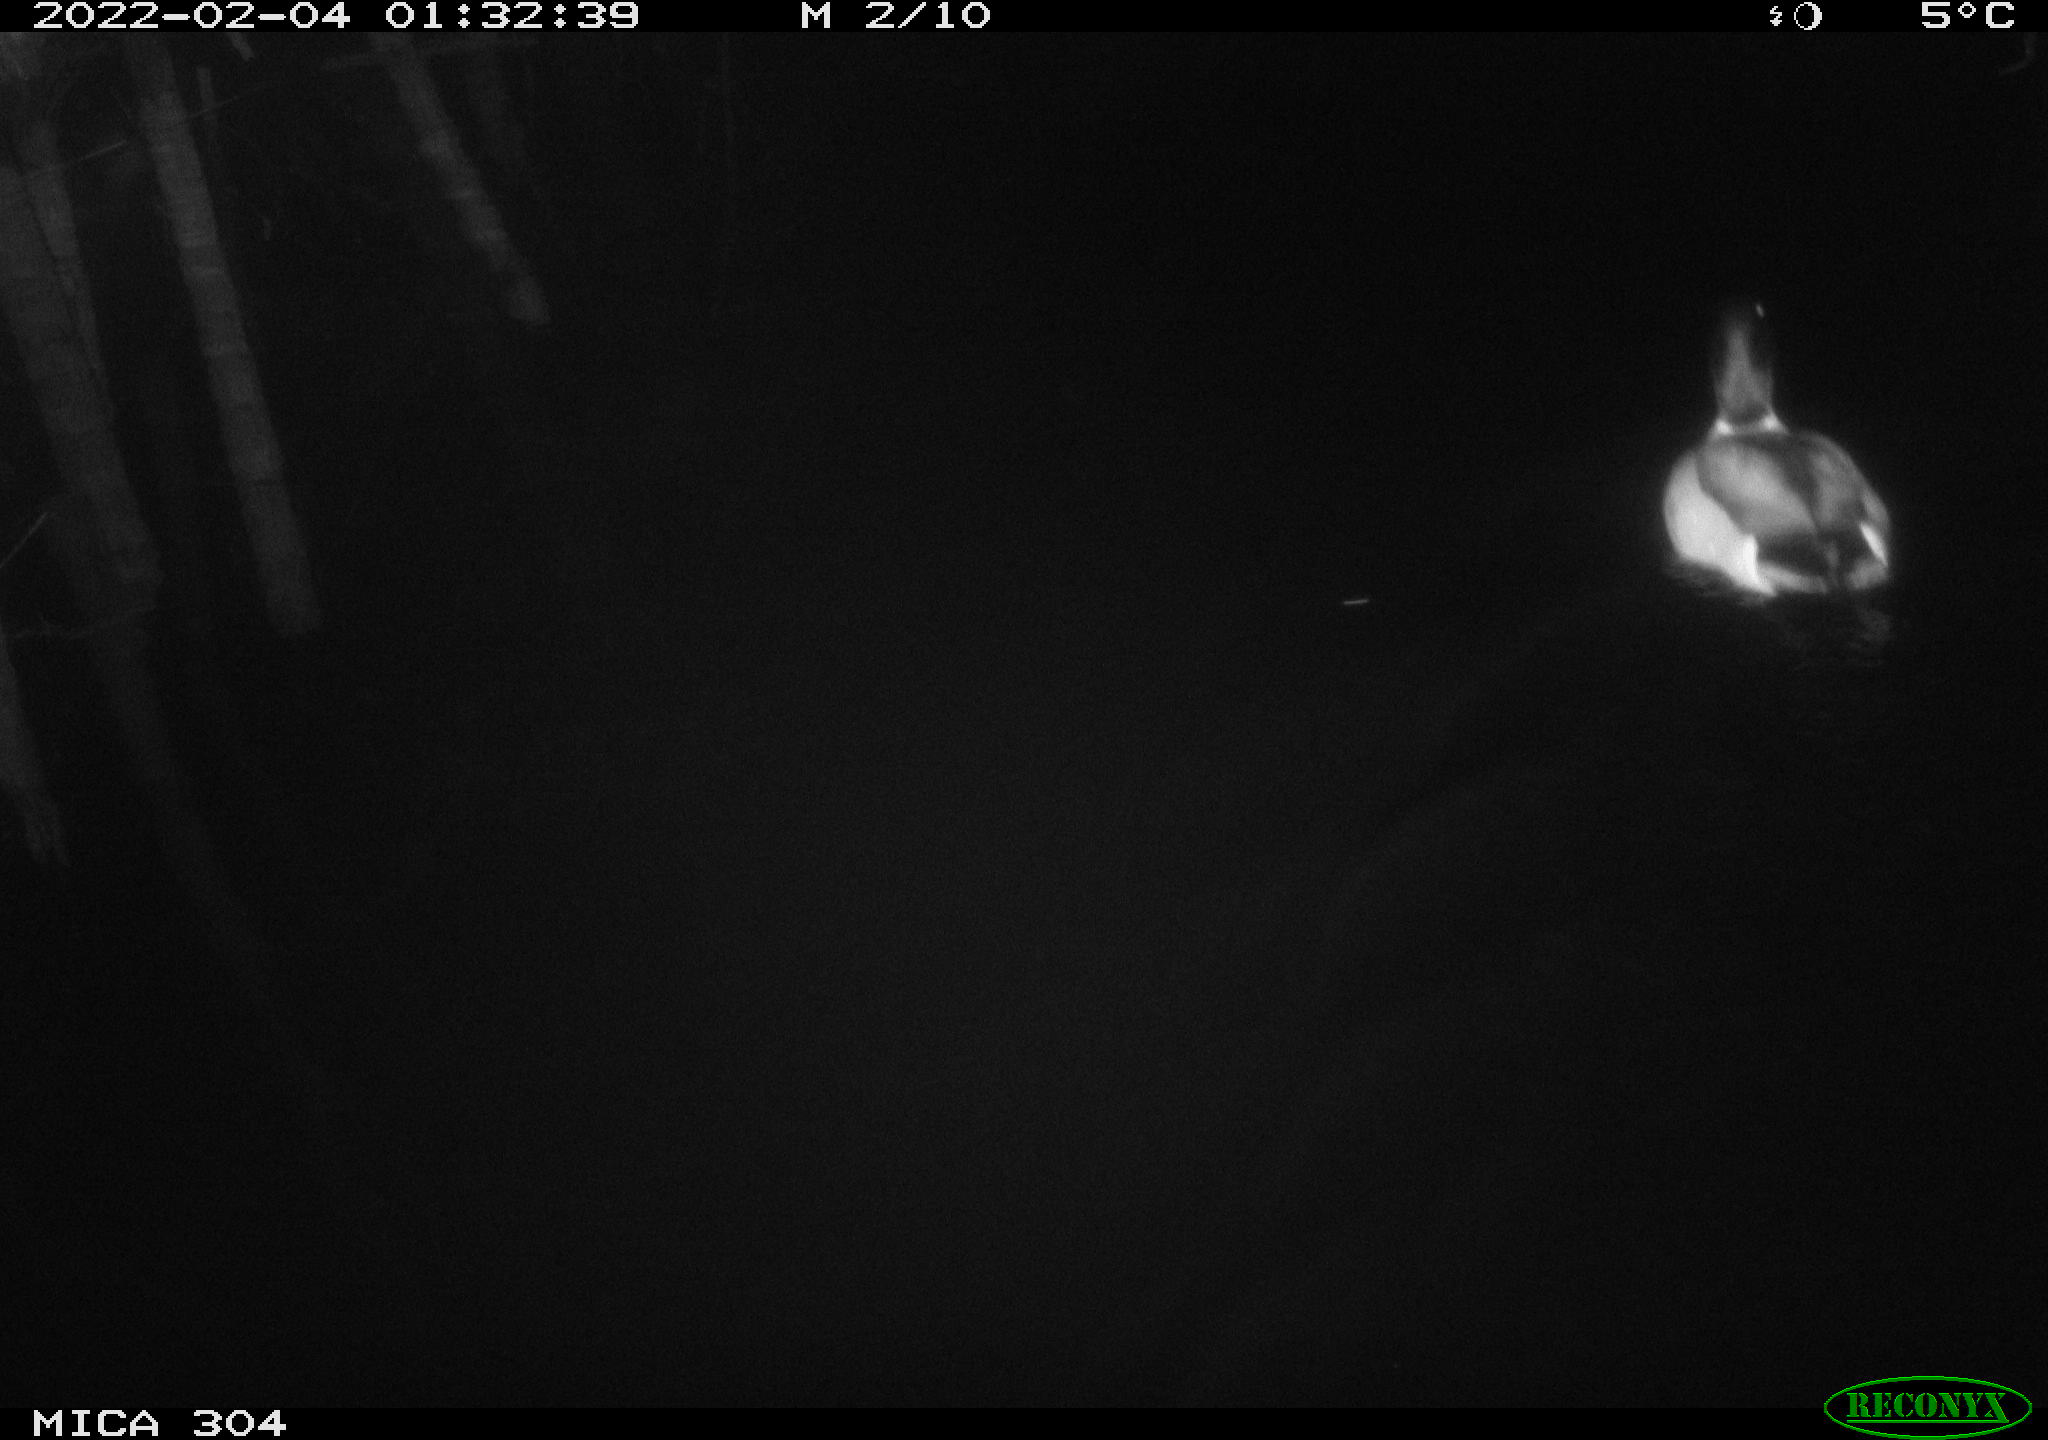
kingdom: Animalia
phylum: Chordata
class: Aves
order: Anseriformes
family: Anatidae
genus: Anas
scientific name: Anas platyrhynchos
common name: Mallard
